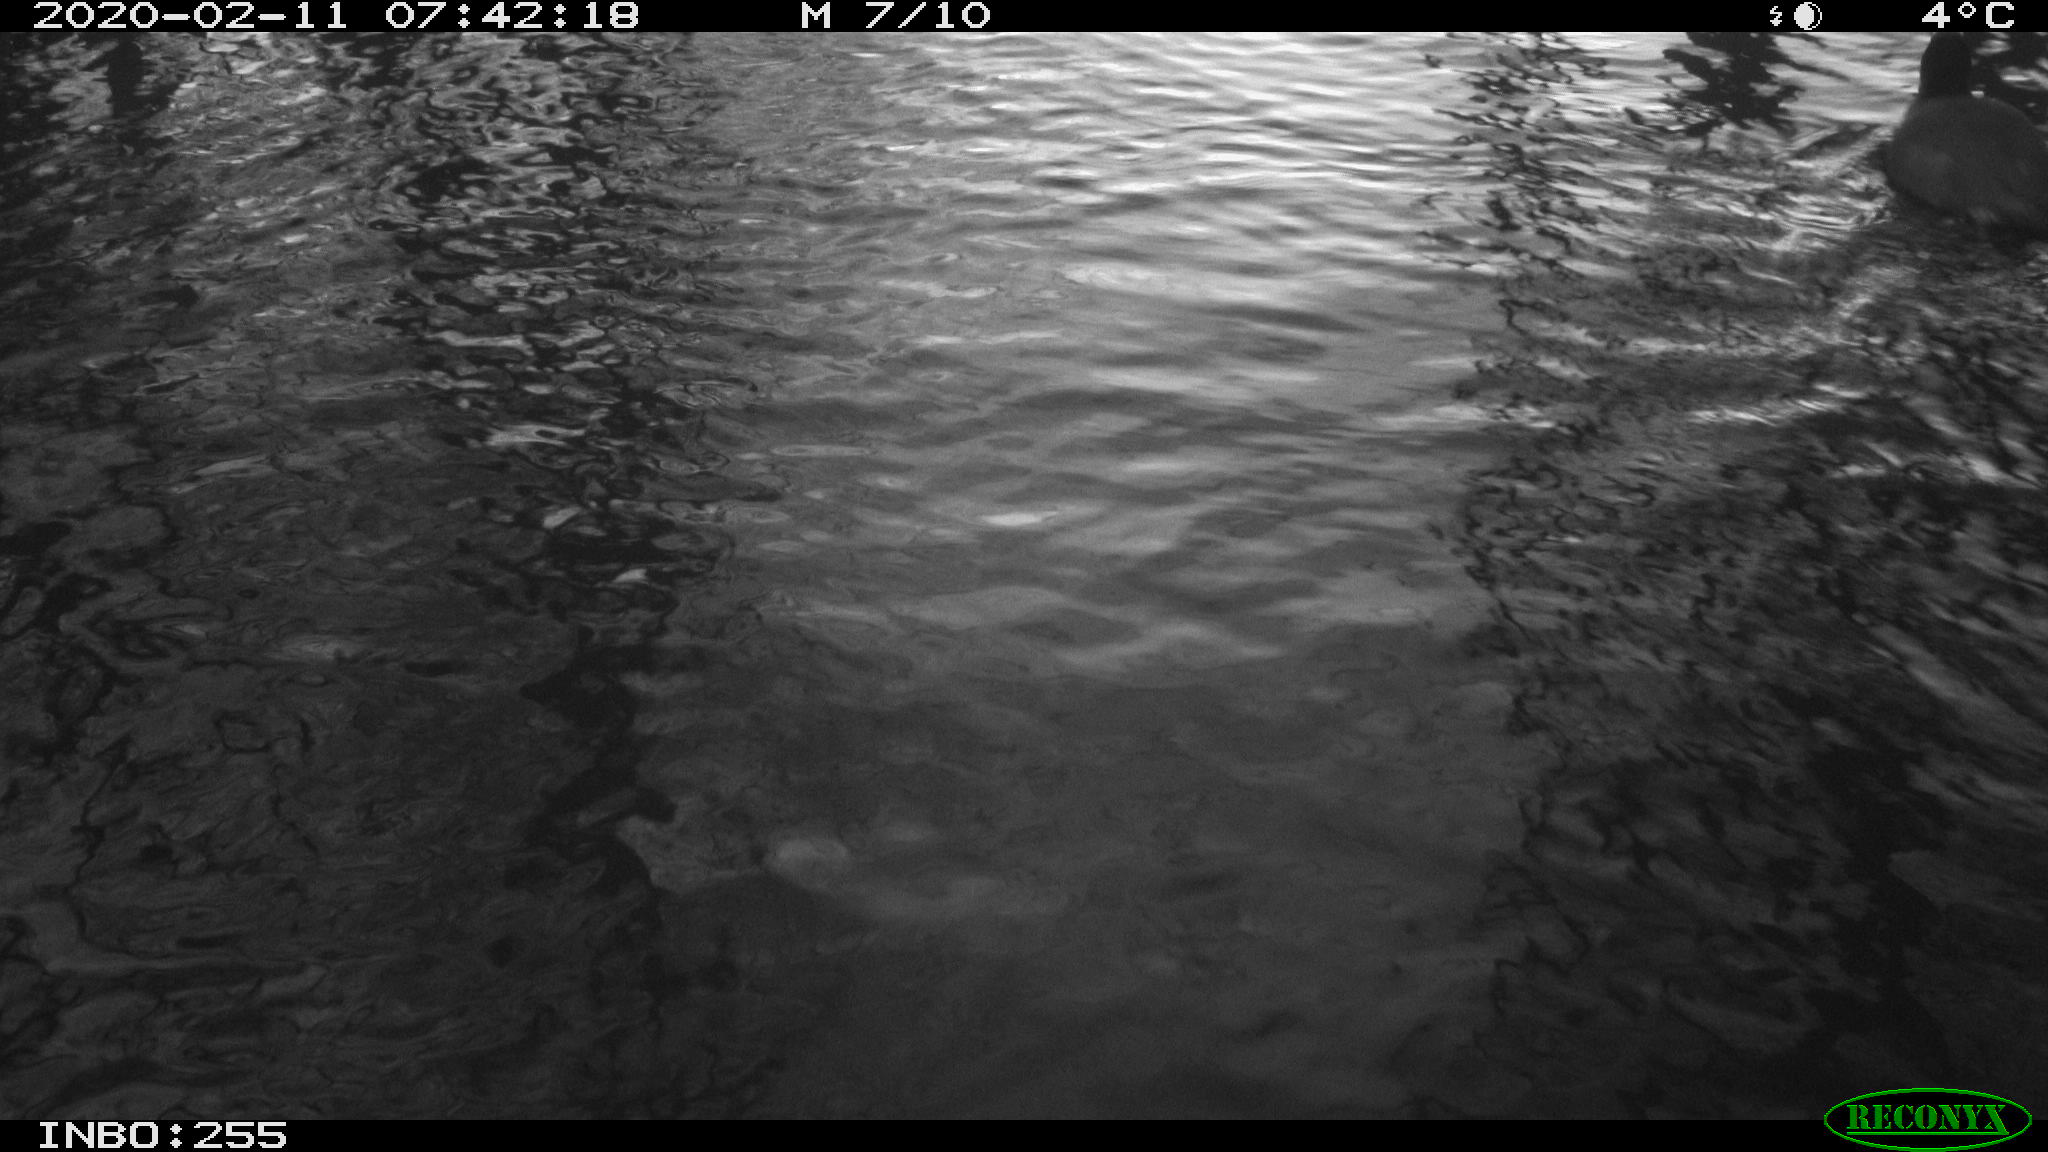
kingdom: Animalia
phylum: Chordata
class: Aves
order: Gruiformes
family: Rallidae
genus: Fulica
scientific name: Fulica atra
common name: Eurasian coot
